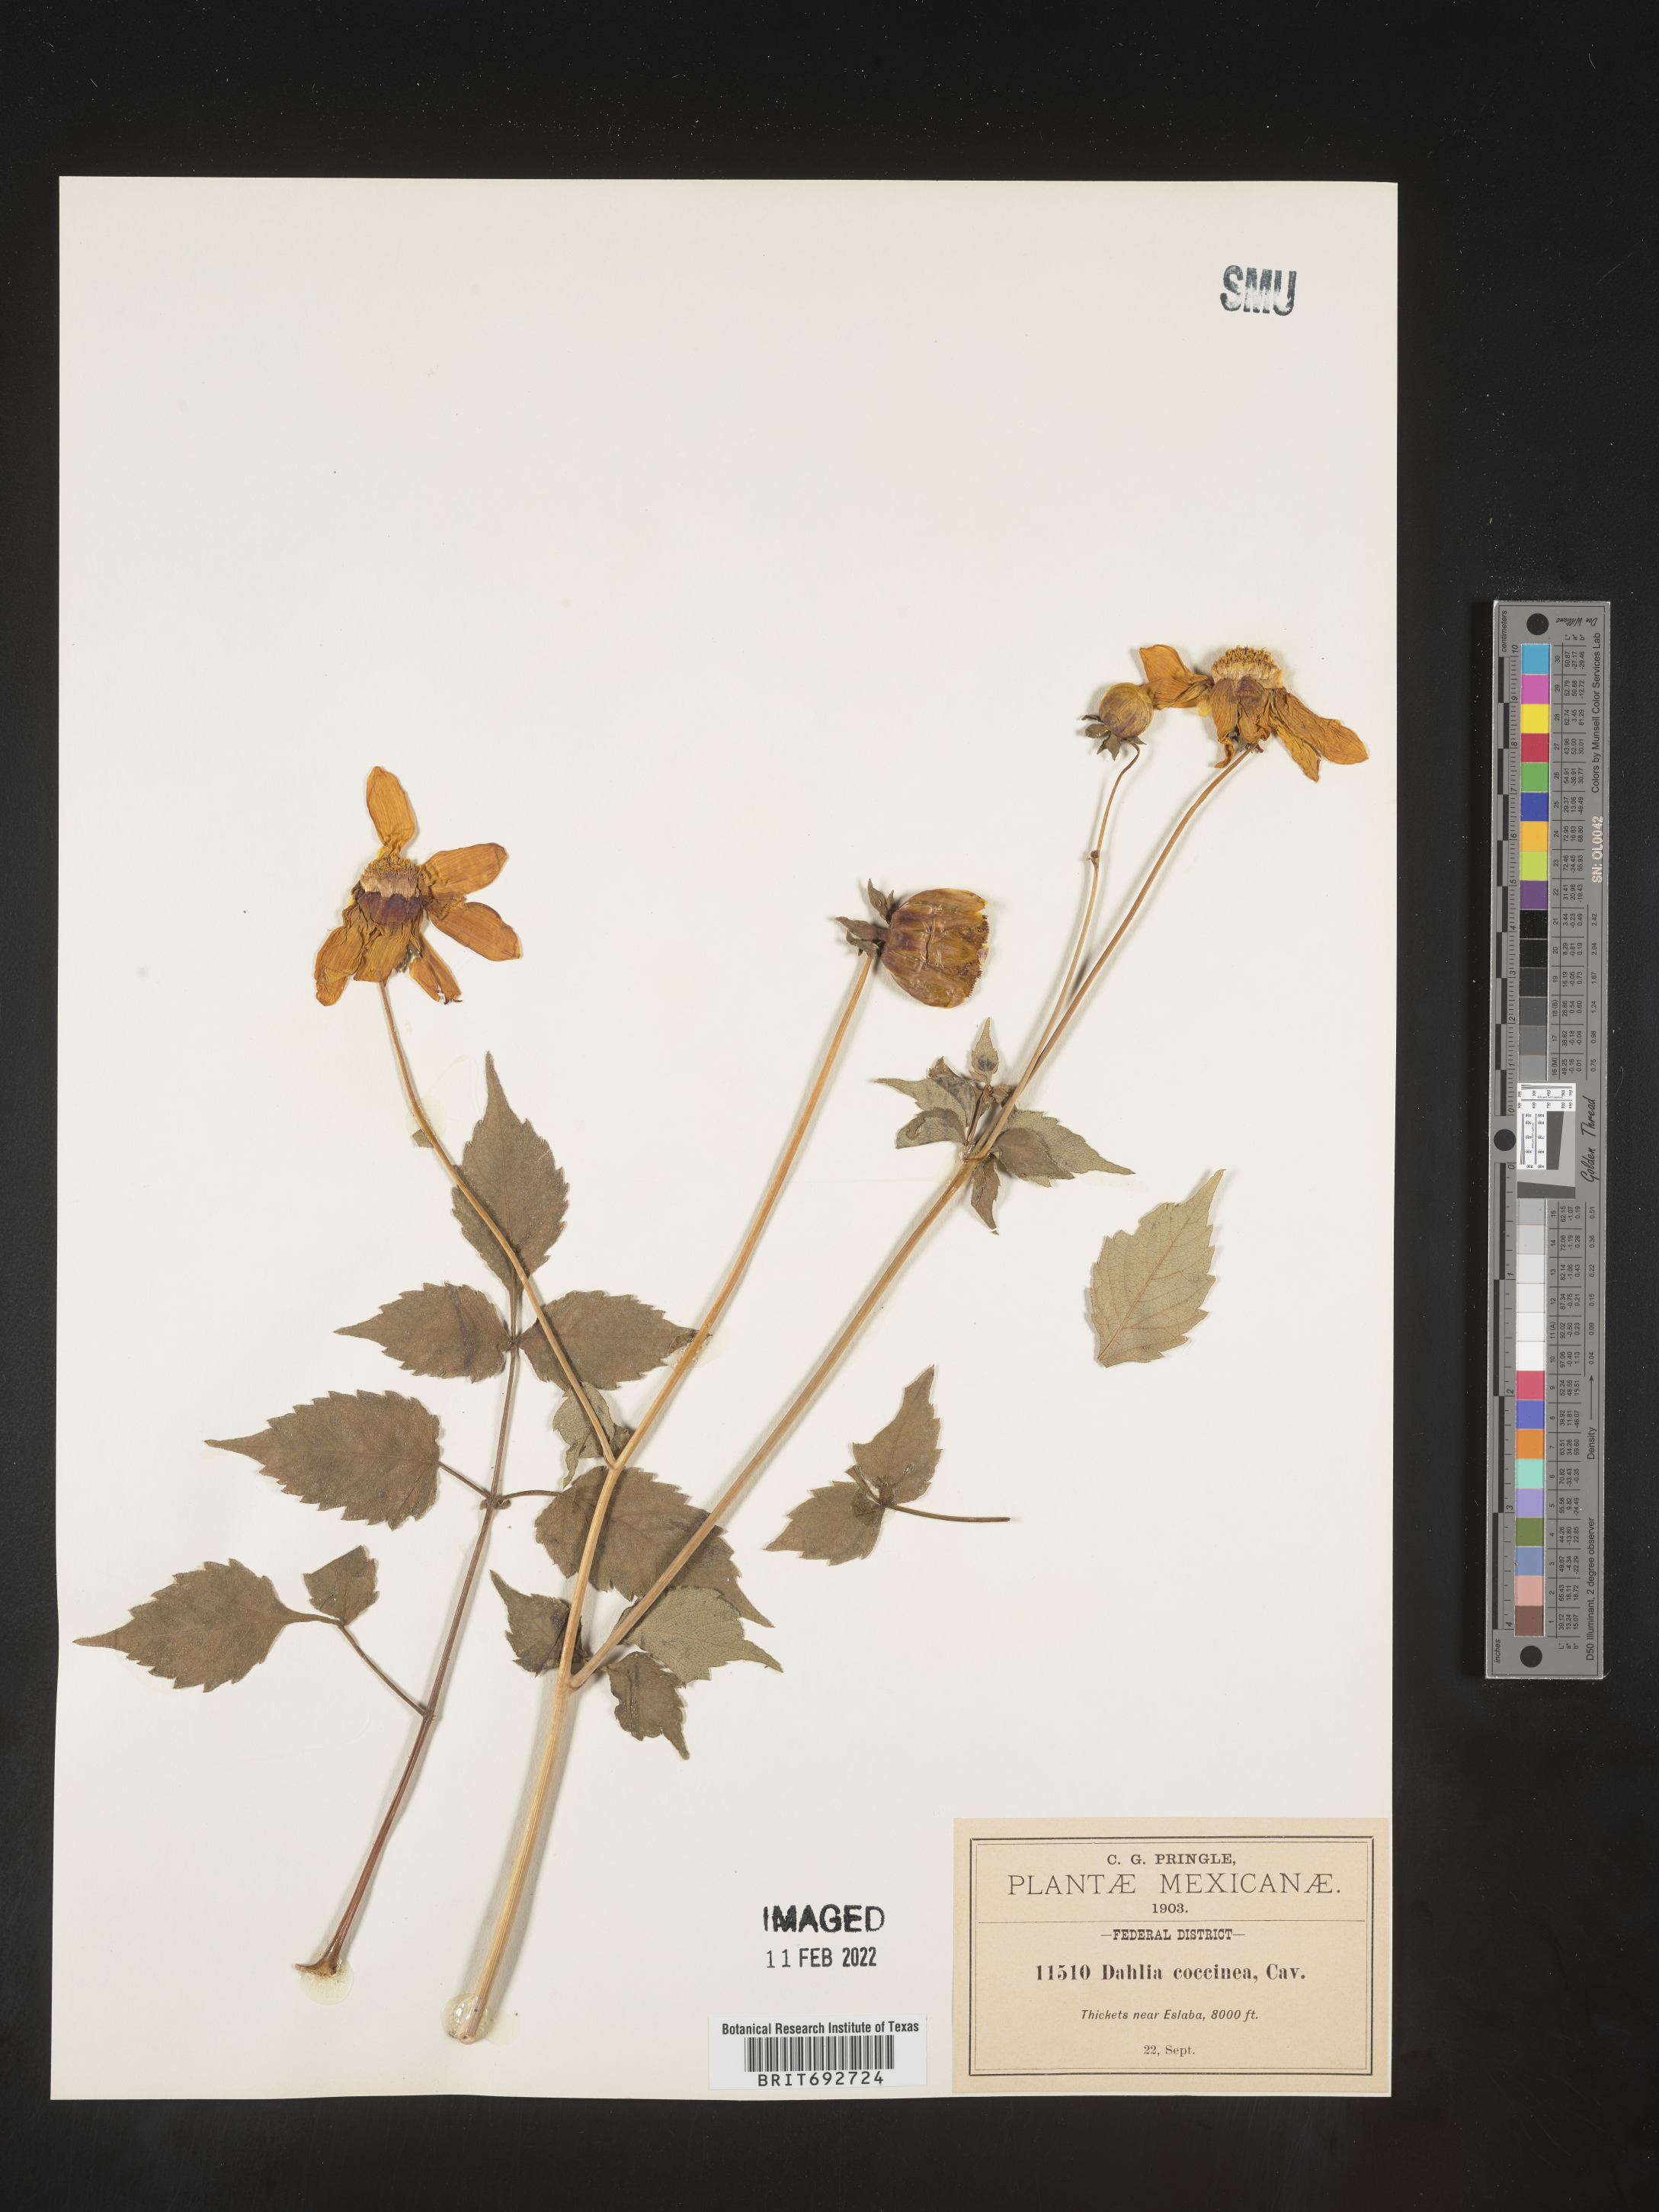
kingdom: Plantae
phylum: Tracheophyta
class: Magnoliopsida
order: Asterales
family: Asteraceae
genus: Dahlia
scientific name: Dahlia
